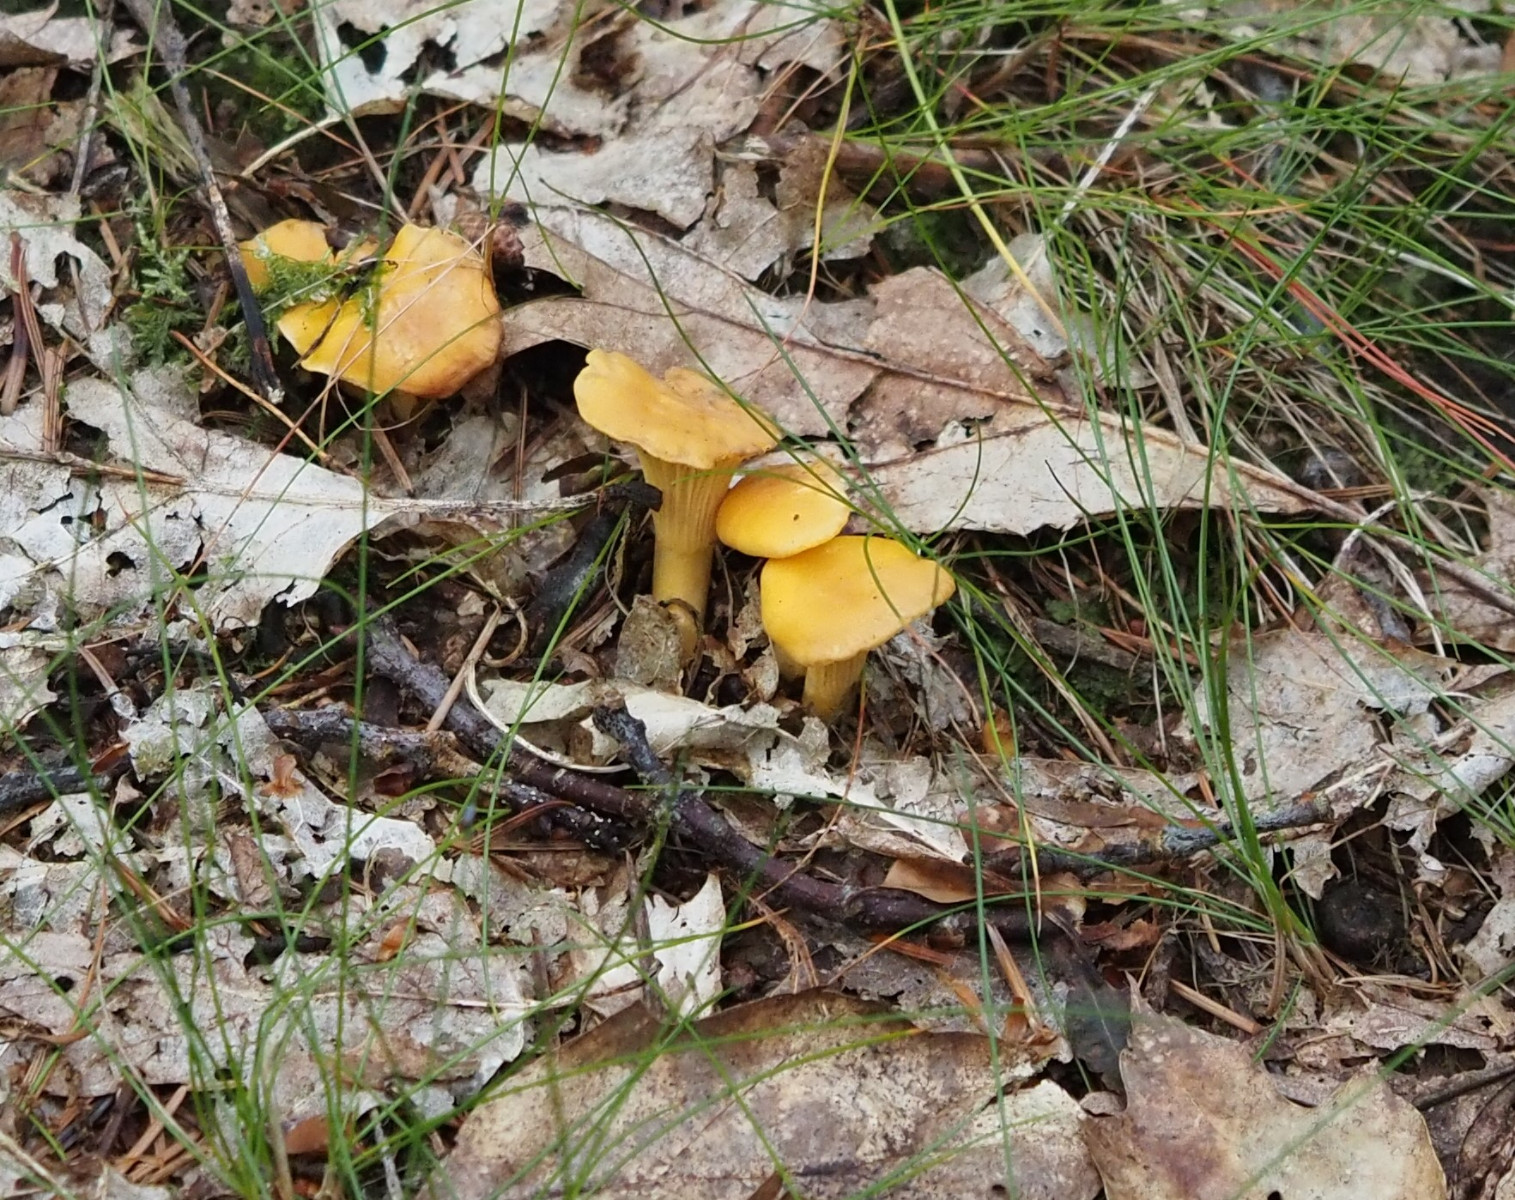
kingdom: Fungi
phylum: Basidiomycota
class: Agaricomycetes
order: Cantharellales
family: Hydnaceae
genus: Cantharellus
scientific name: Cantharellus cibarius
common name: almindelig kantarel
